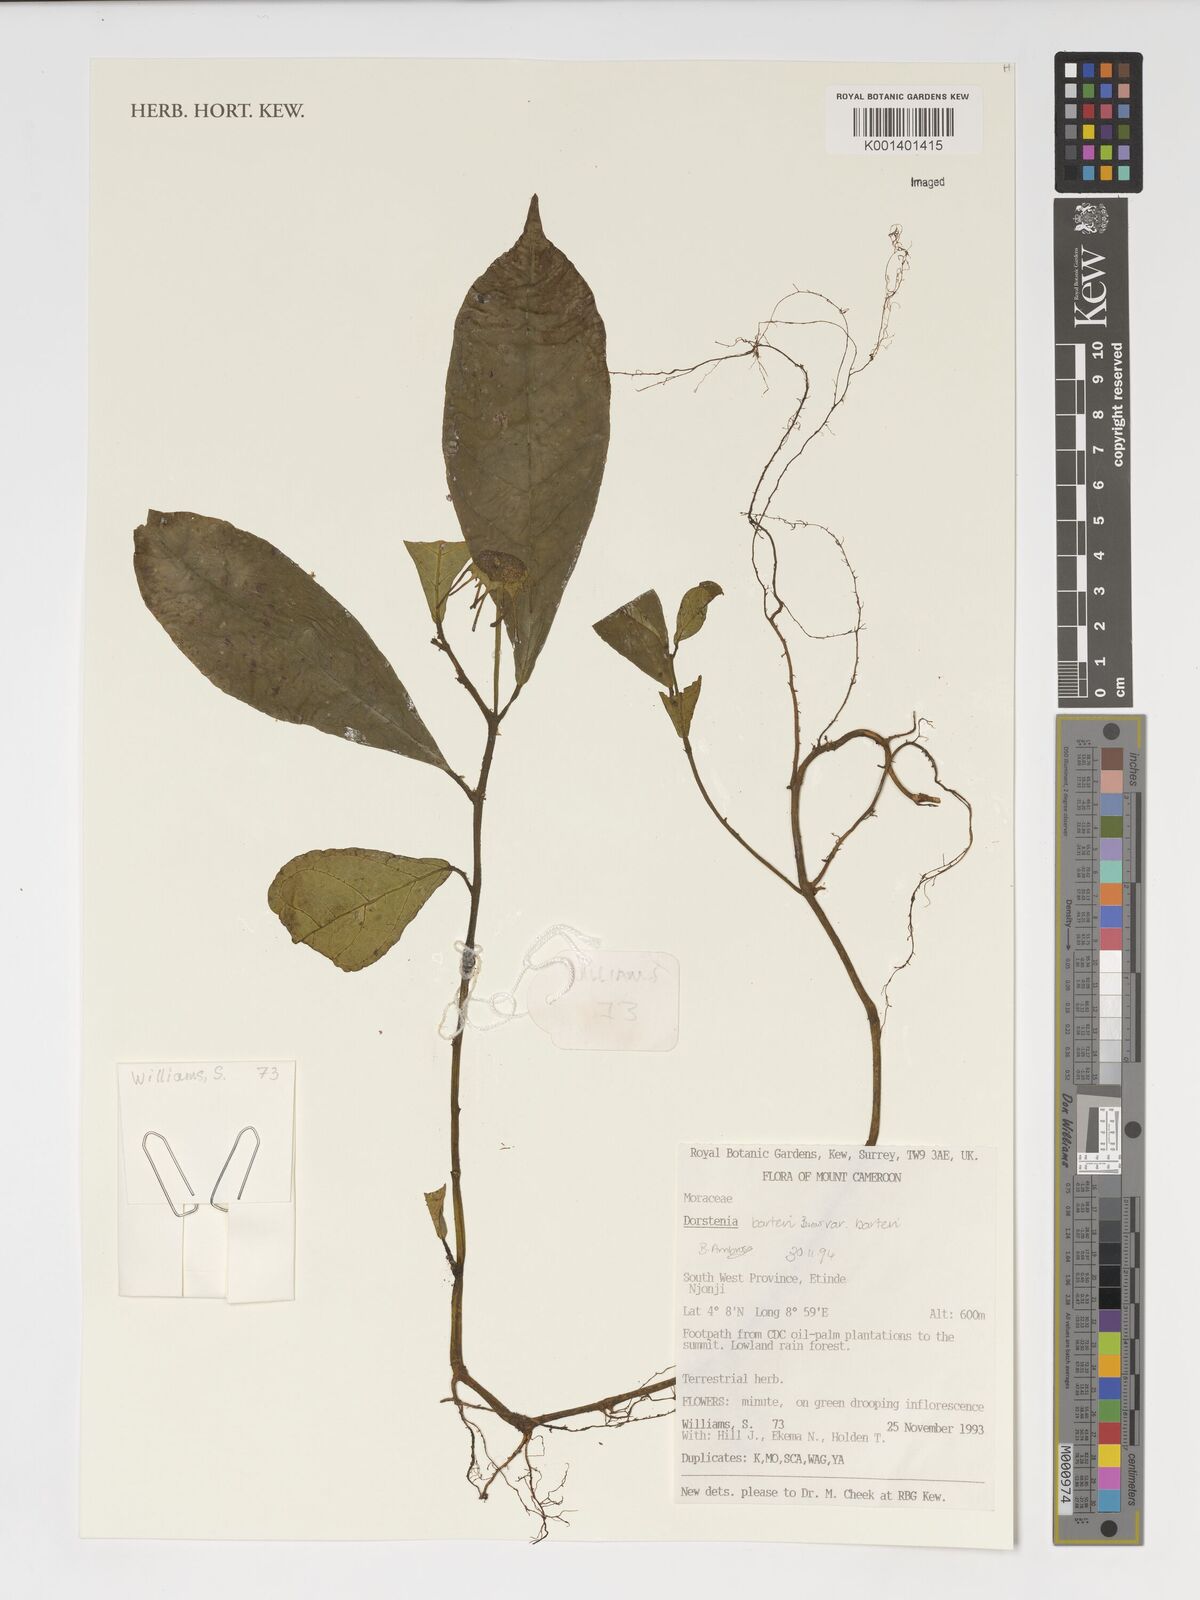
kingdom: Plantae
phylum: Tracheophyta
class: Magnoliopsida
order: Rosales
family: Moraceae
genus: Dorstenia
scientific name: Dorstenia barteri
